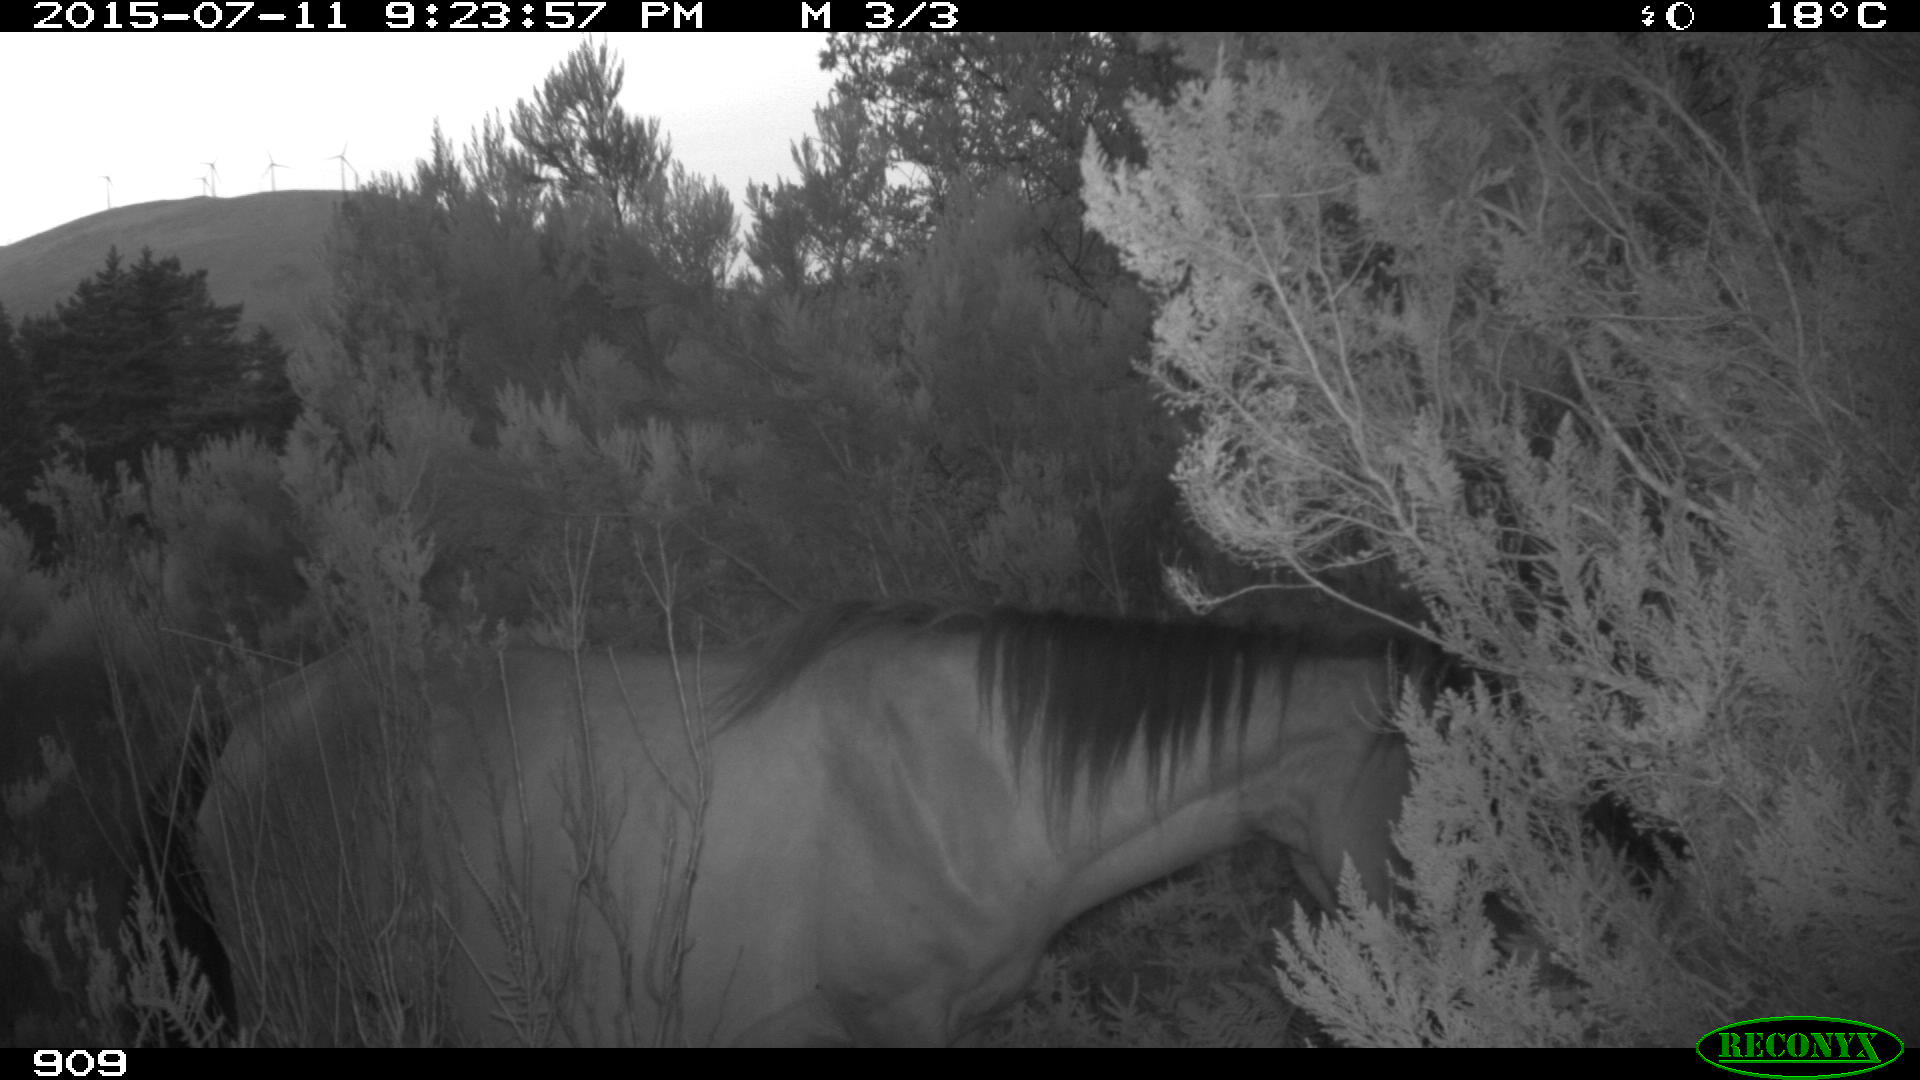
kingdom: Animalia
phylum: Chordata
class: Mammalia
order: Perissodactyla
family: Equidae
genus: Equus
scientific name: Equus caballus
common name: Horse
